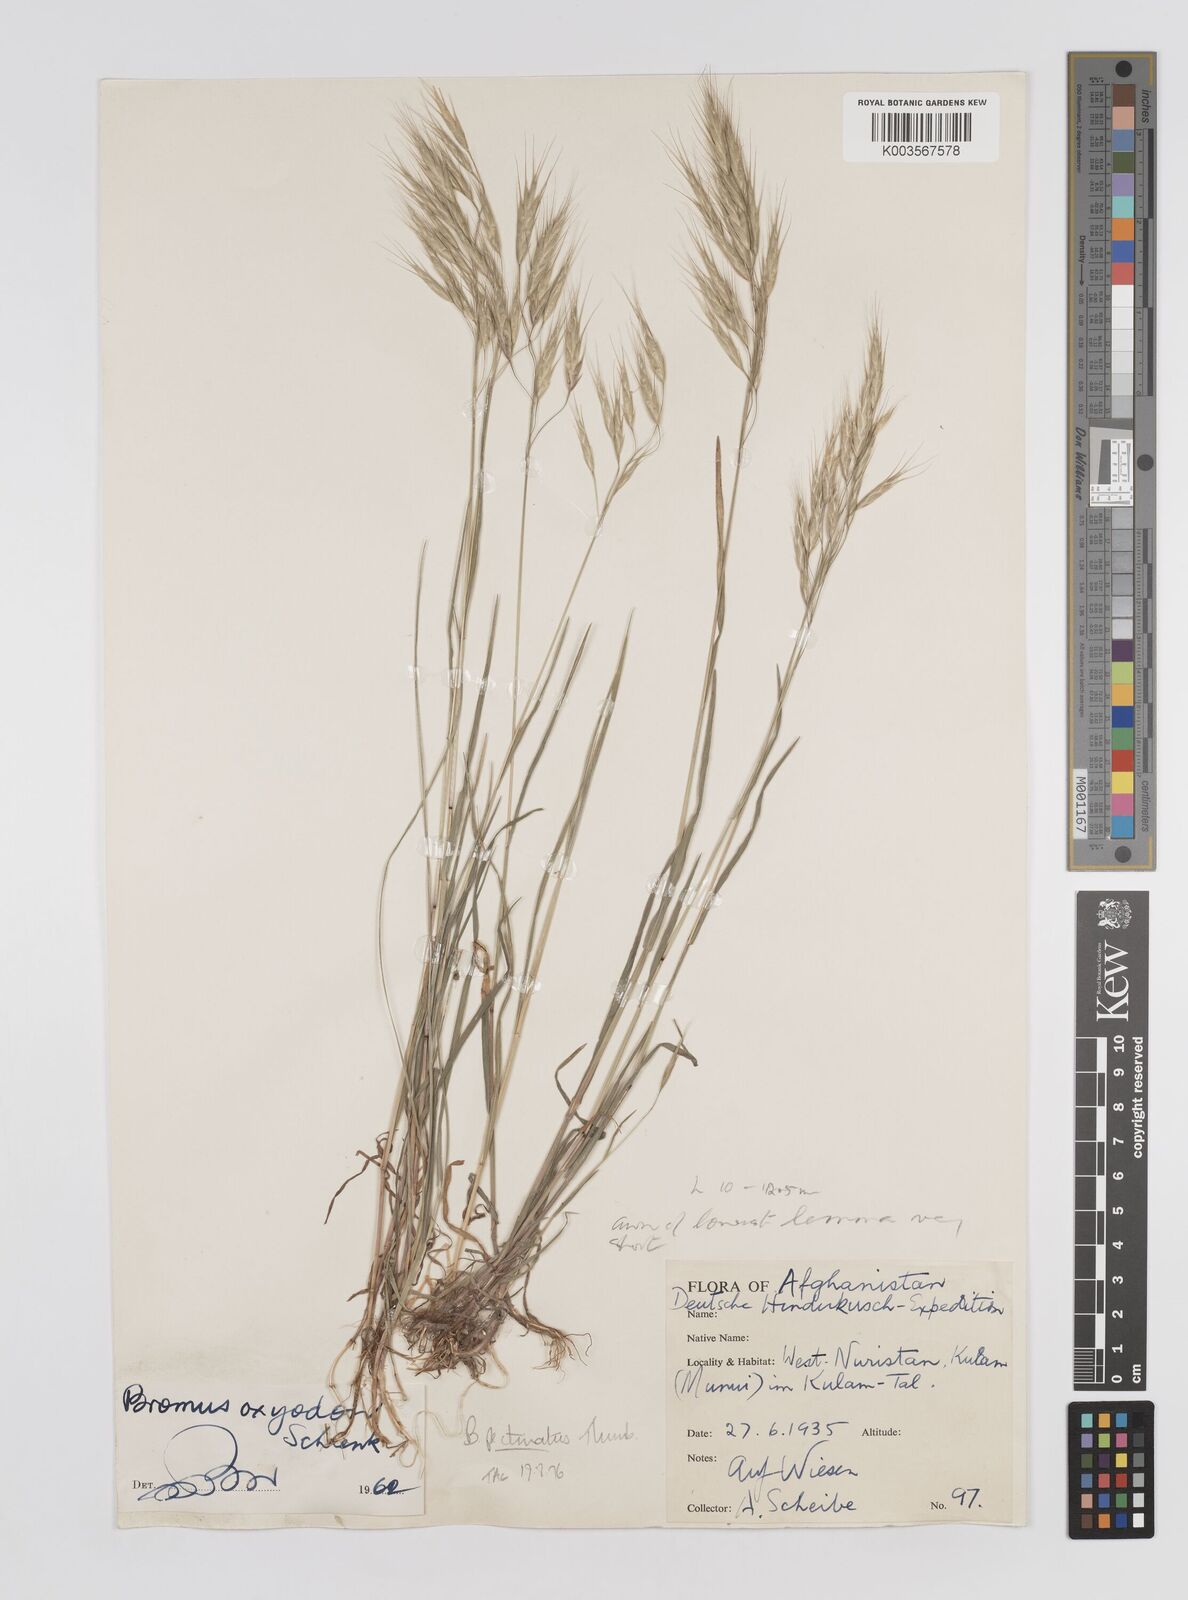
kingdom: Plantae
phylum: Tracheophyta
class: Liliopsida
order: Poales
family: Poaceae
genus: Bromus
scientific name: Bromus pectinatus
